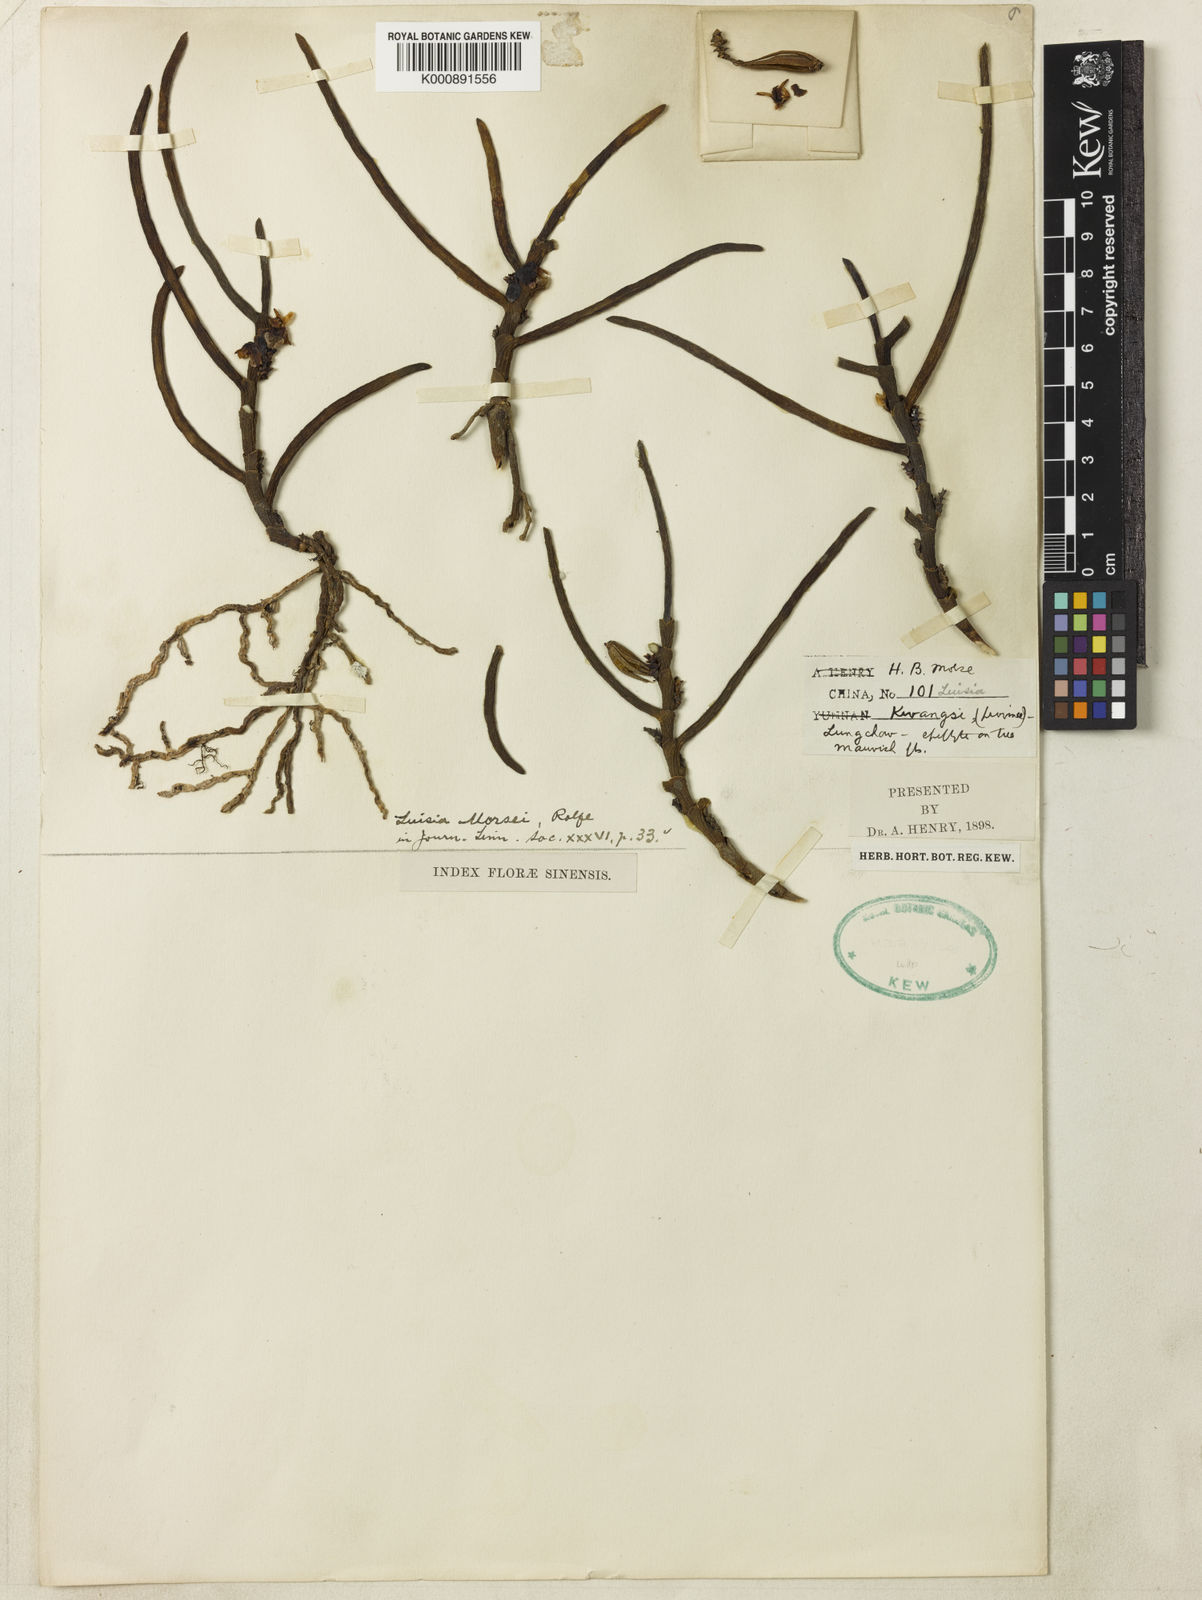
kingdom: Plantae
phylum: Tracheophyta
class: Liliopsida
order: Asparagales
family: Orchidaceae
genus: Luisia
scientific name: Luisia morsei
